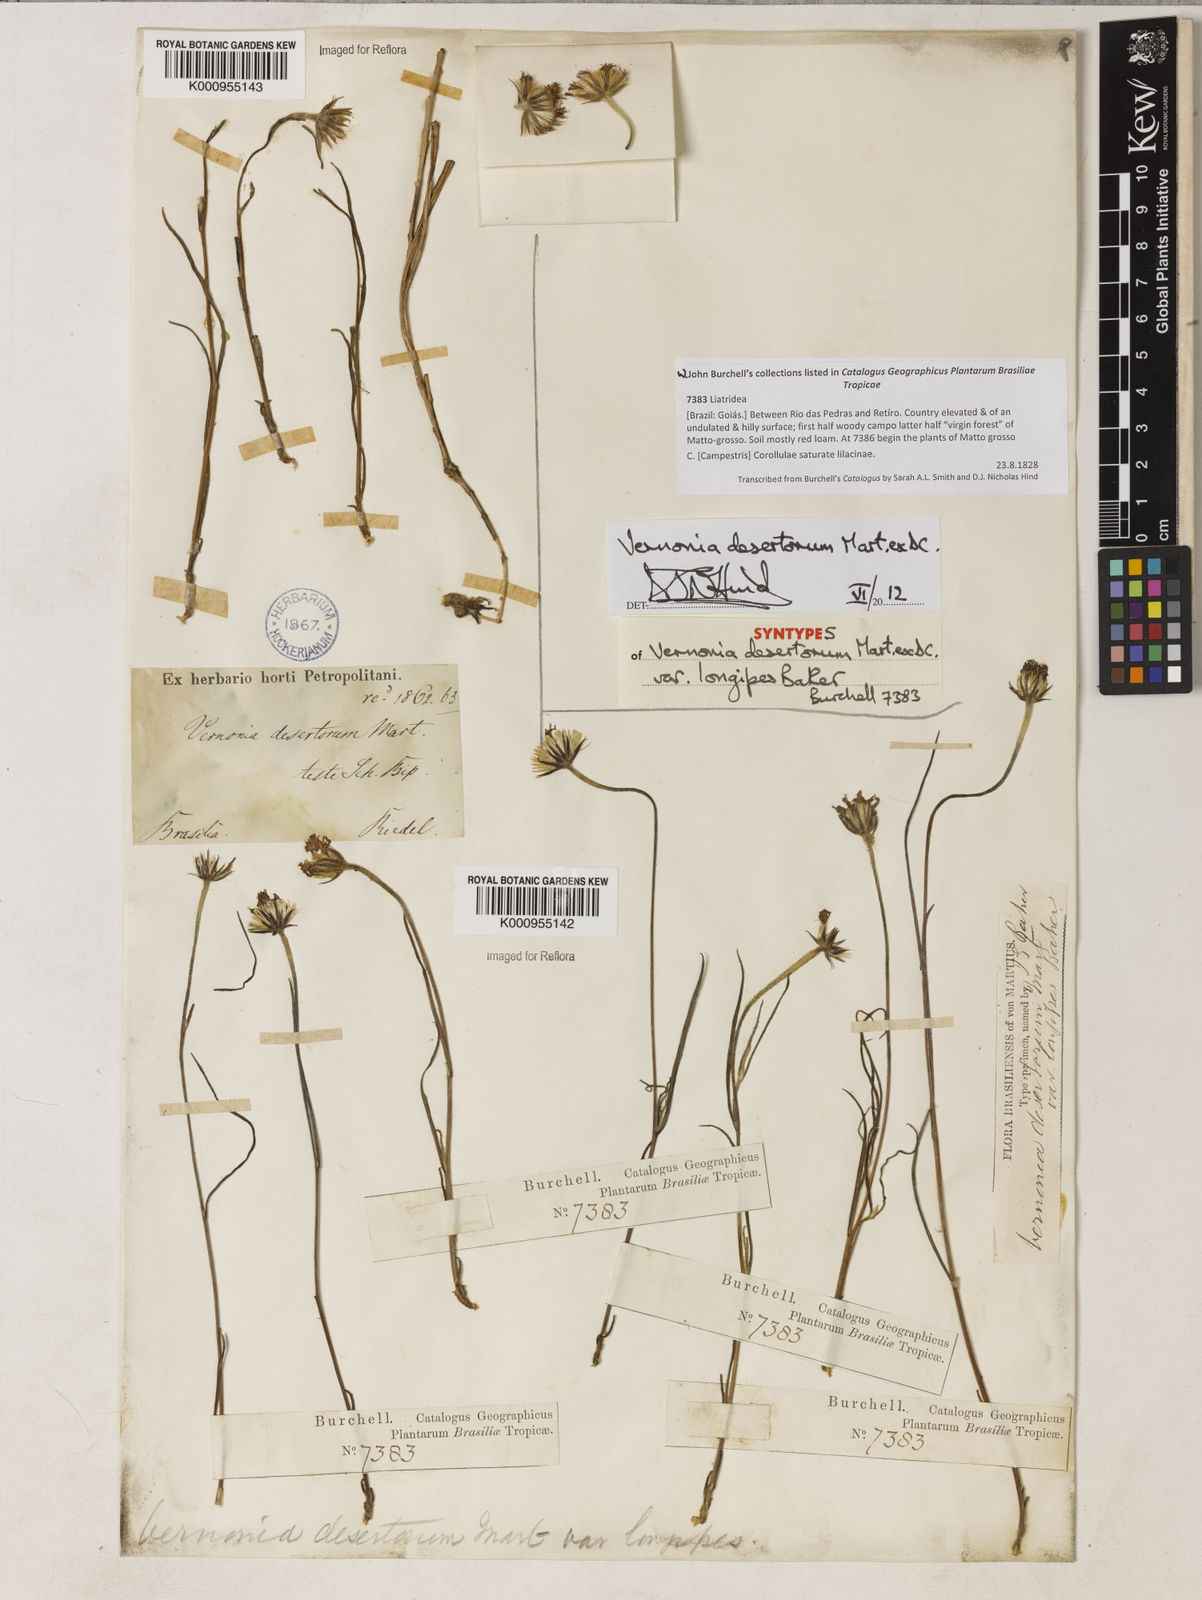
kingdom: Plantae
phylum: Tracheophyta
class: Magnoliopsida
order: Asterales
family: Asteraceae
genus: Chrysolaena
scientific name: Chrysolaena desertorum
